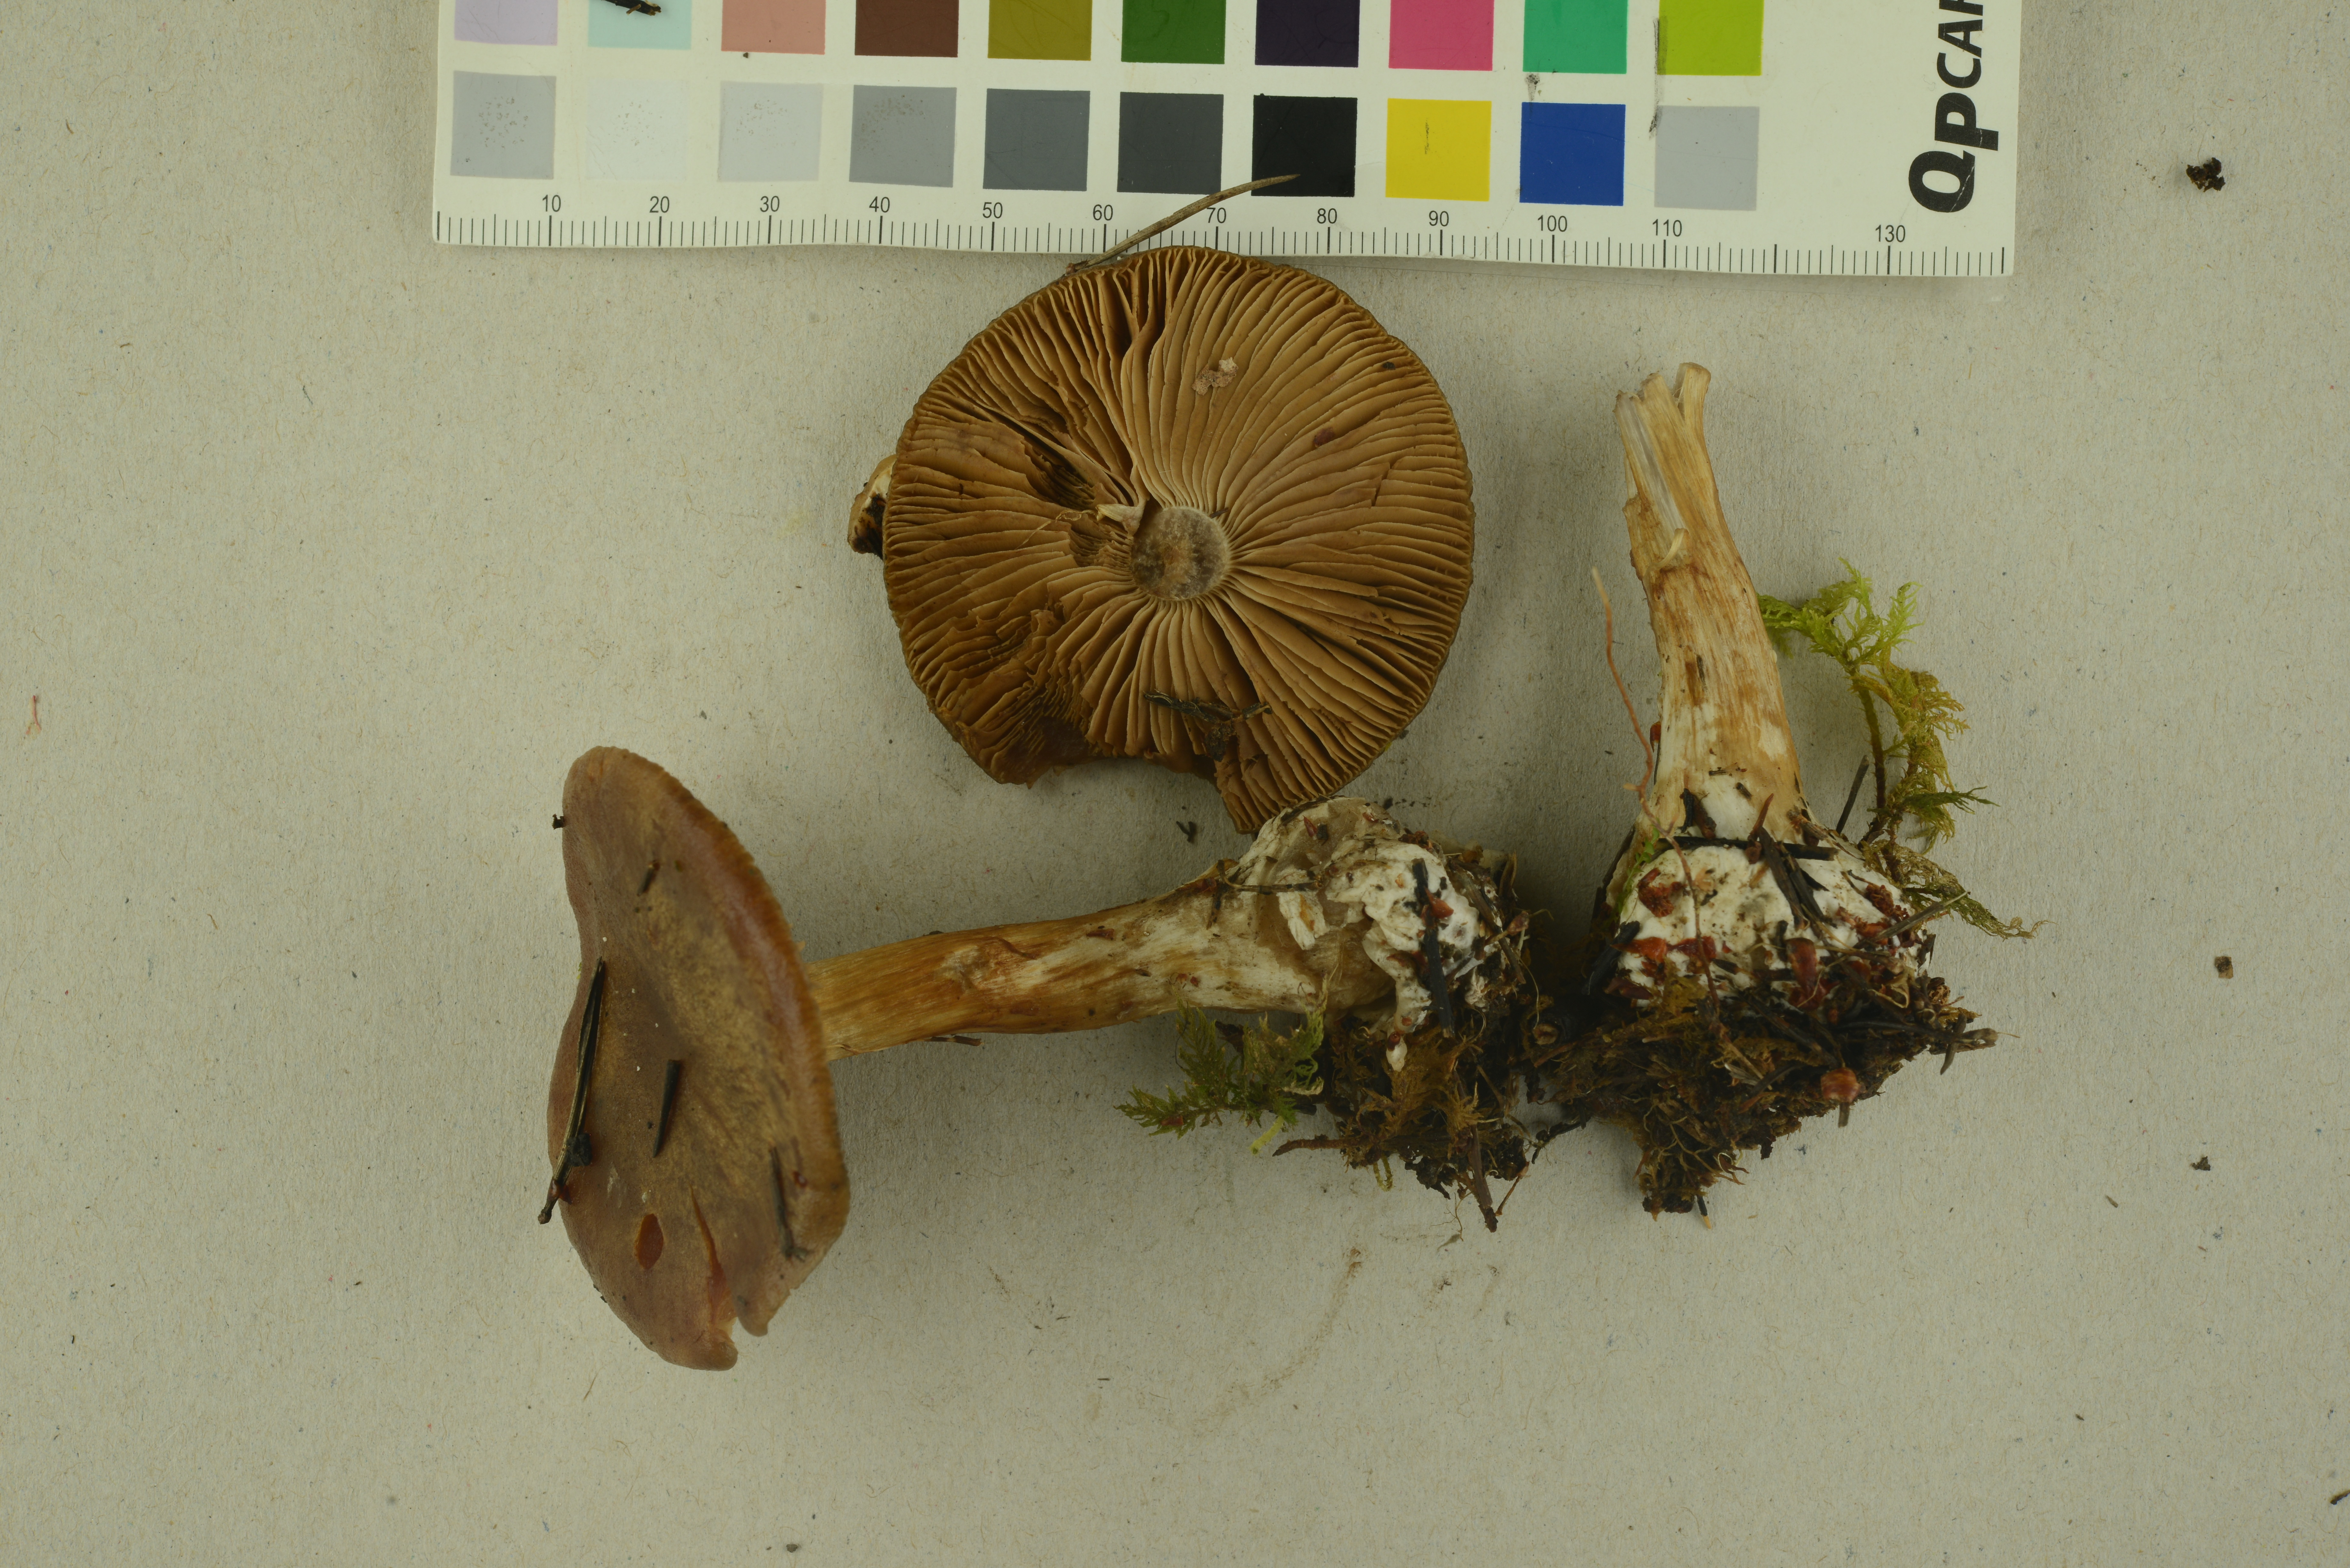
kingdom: Fungi
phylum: Basidiomycota
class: Agaricomycetes
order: Agaricales
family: Cortinariaceae
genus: Thaxterogaster
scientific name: Thaxterogaster sphagnophilus
